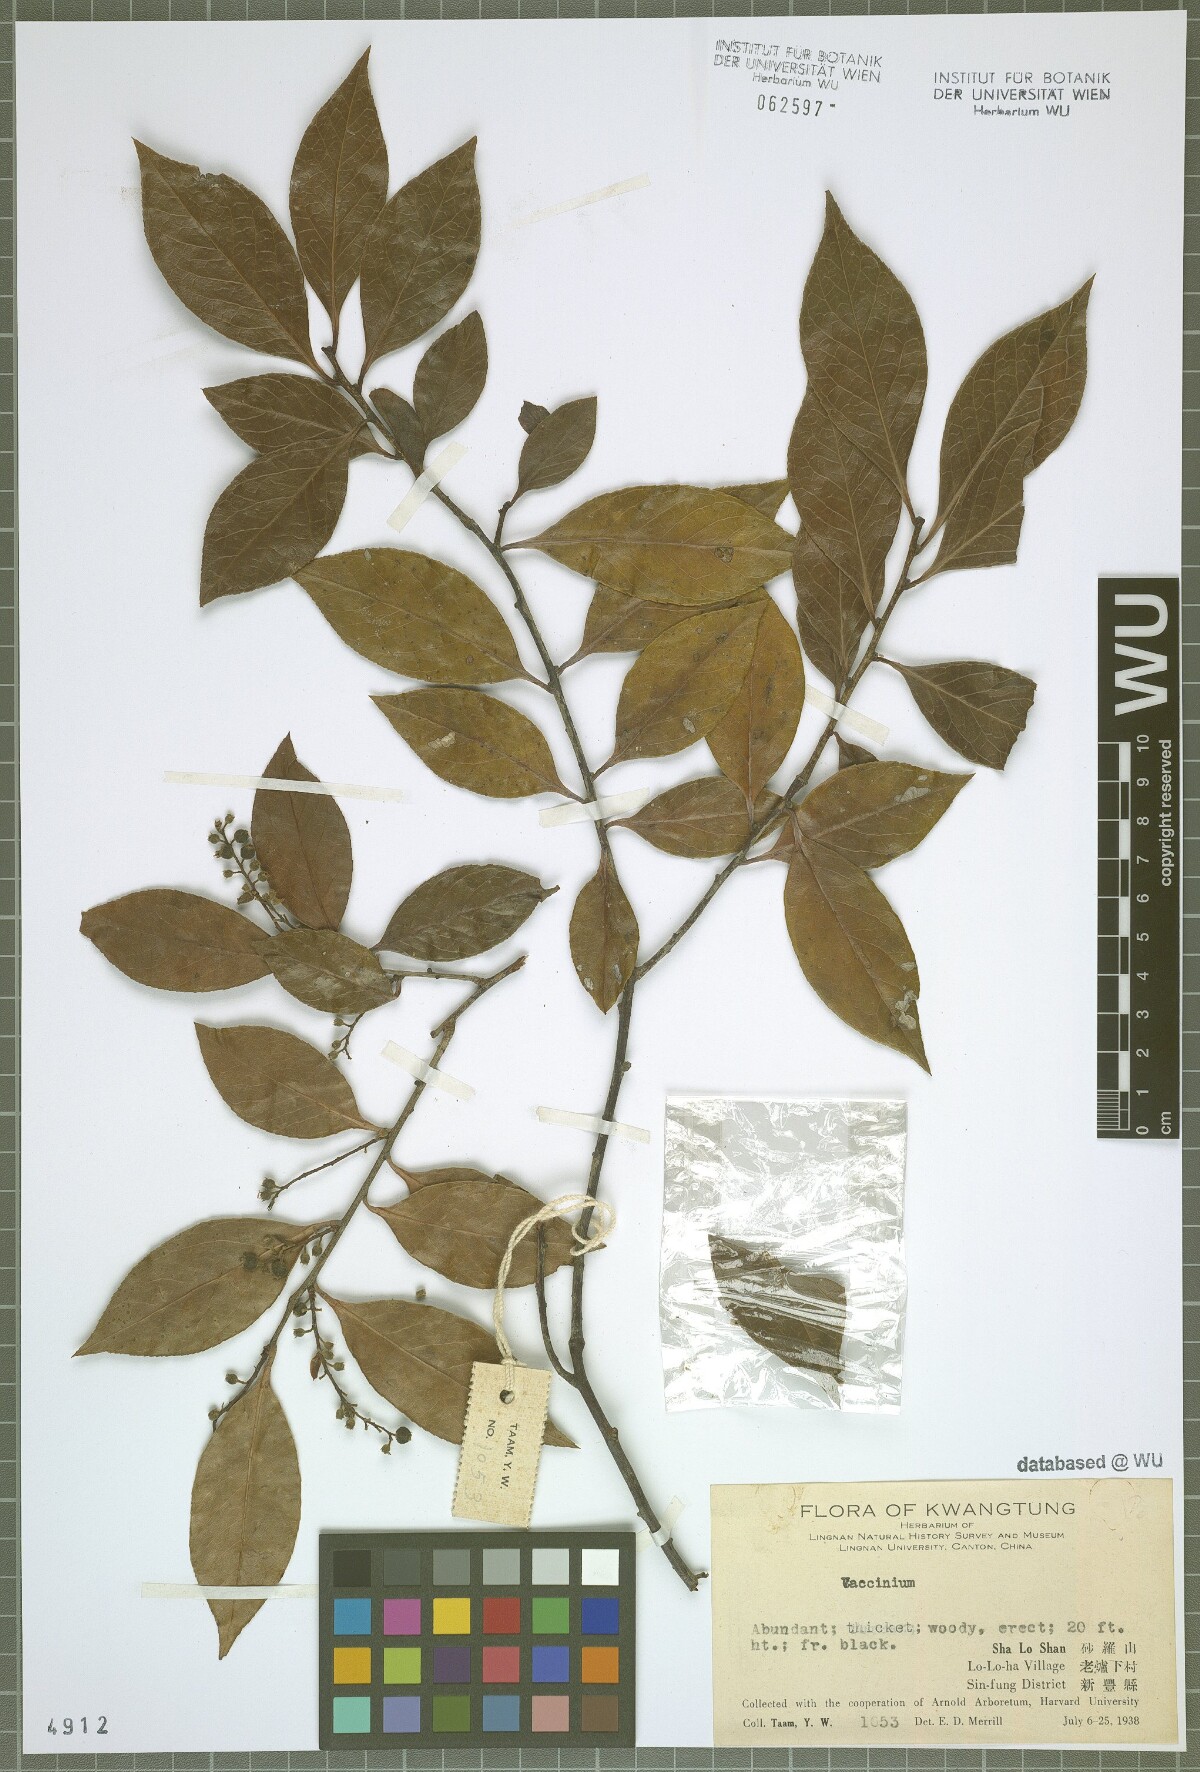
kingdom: Plantae
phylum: Tracheophyta
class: Magnoliopsida
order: Ericales
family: Ericaceae
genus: Vaccinium
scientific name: Vaccinium
